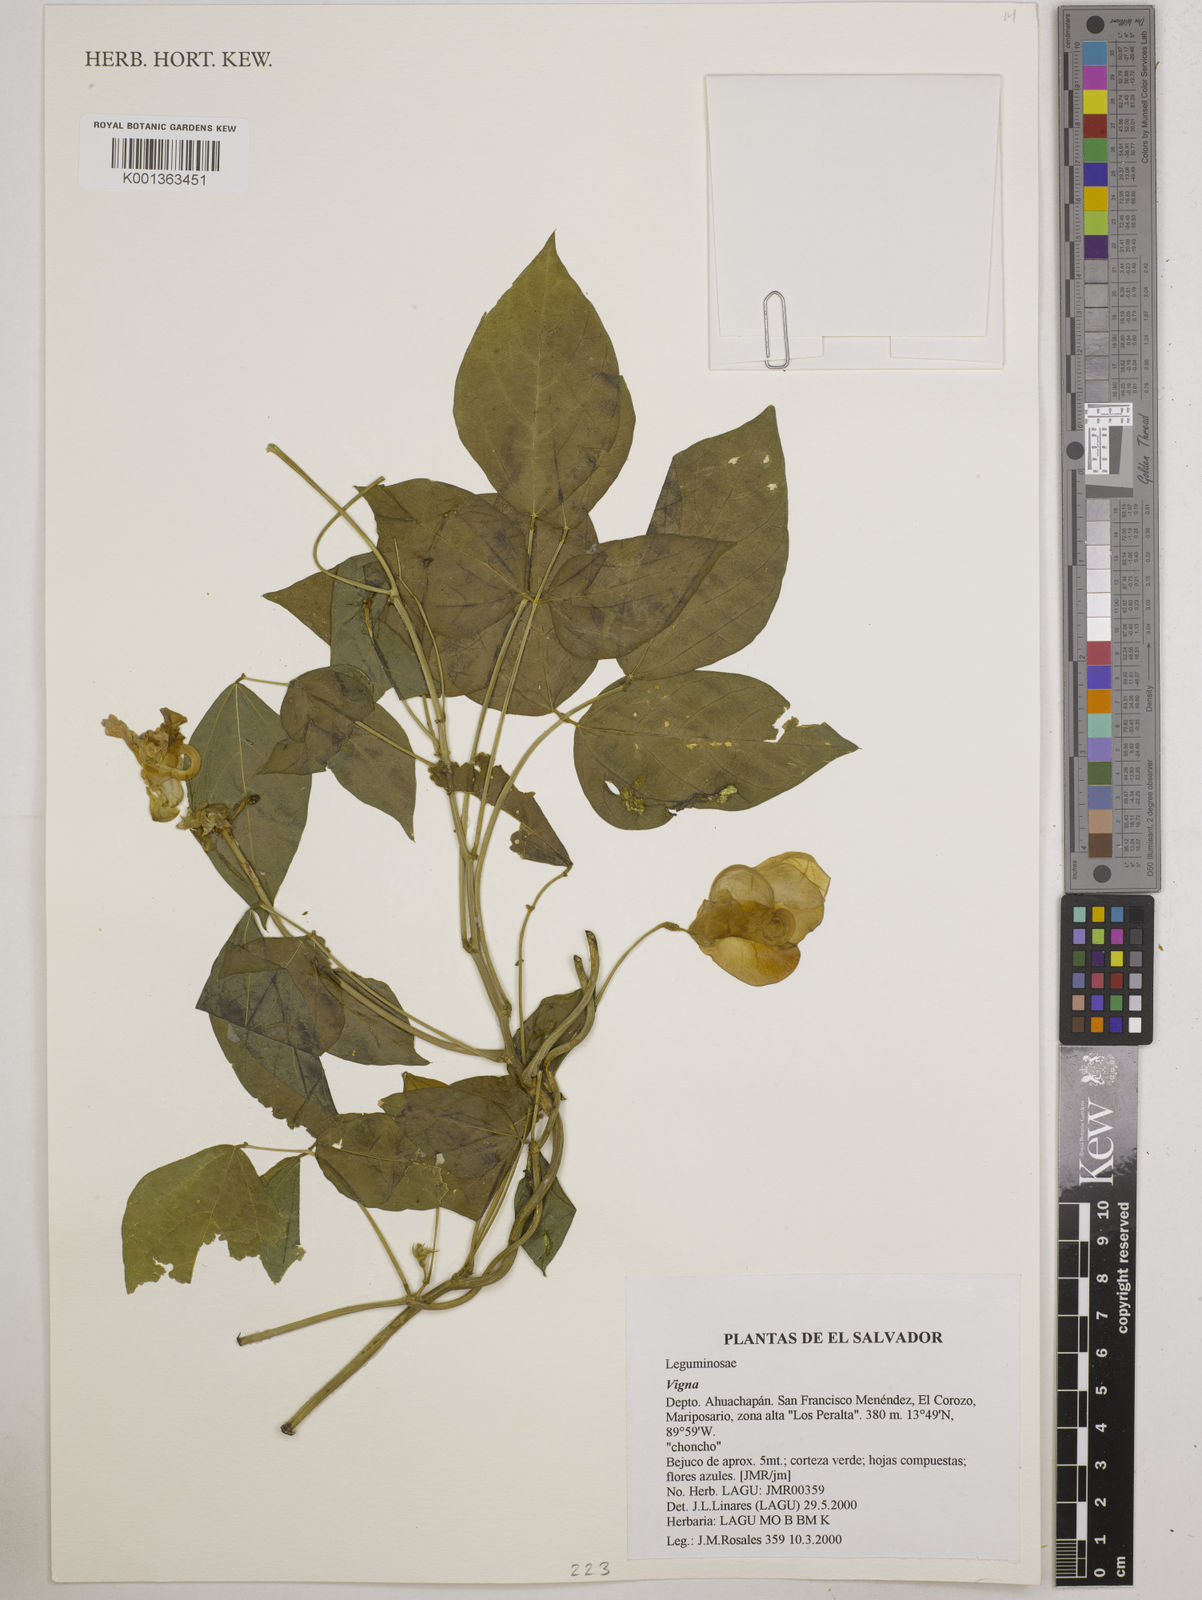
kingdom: Plantae
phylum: Tracheophyta
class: Magnoliopsida
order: Fabales
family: Fabaceae
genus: Vigna
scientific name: Vigna
